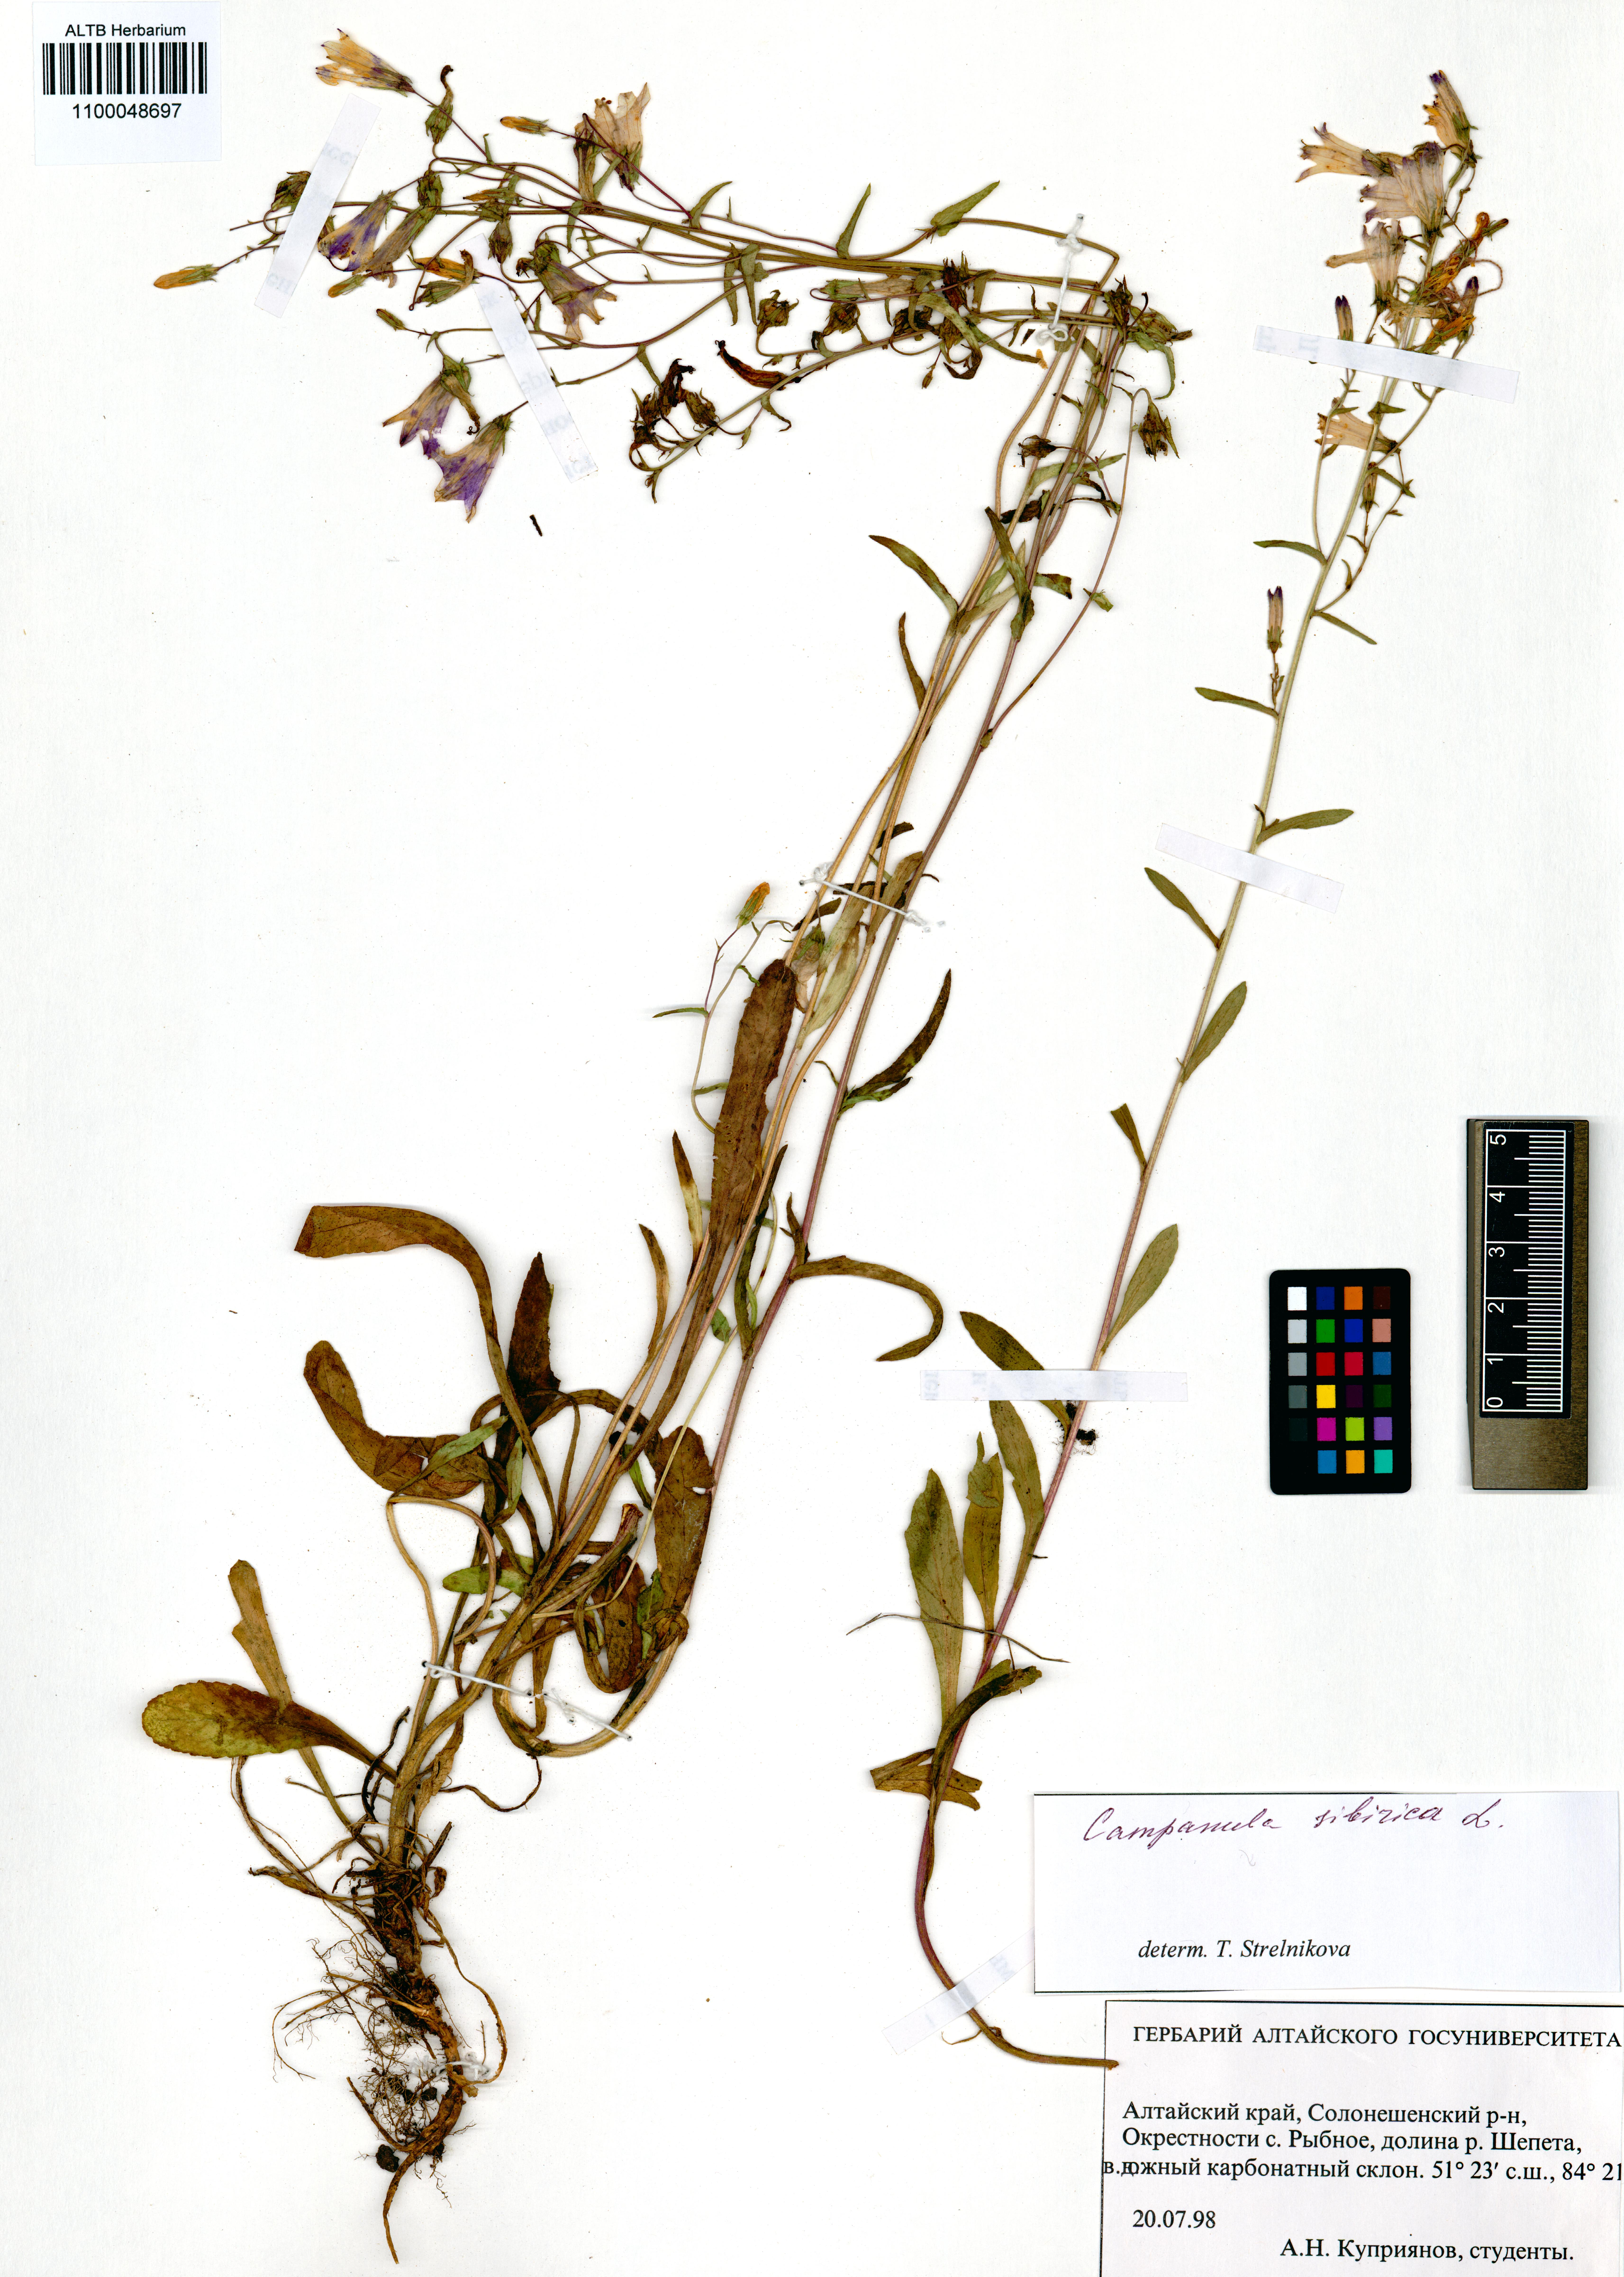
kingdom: Plantae
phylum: Tracheophyta
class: Magnoliopsida
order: Asterales
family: Campanulaceae
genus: Campanula
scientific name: Campanula sibirica
